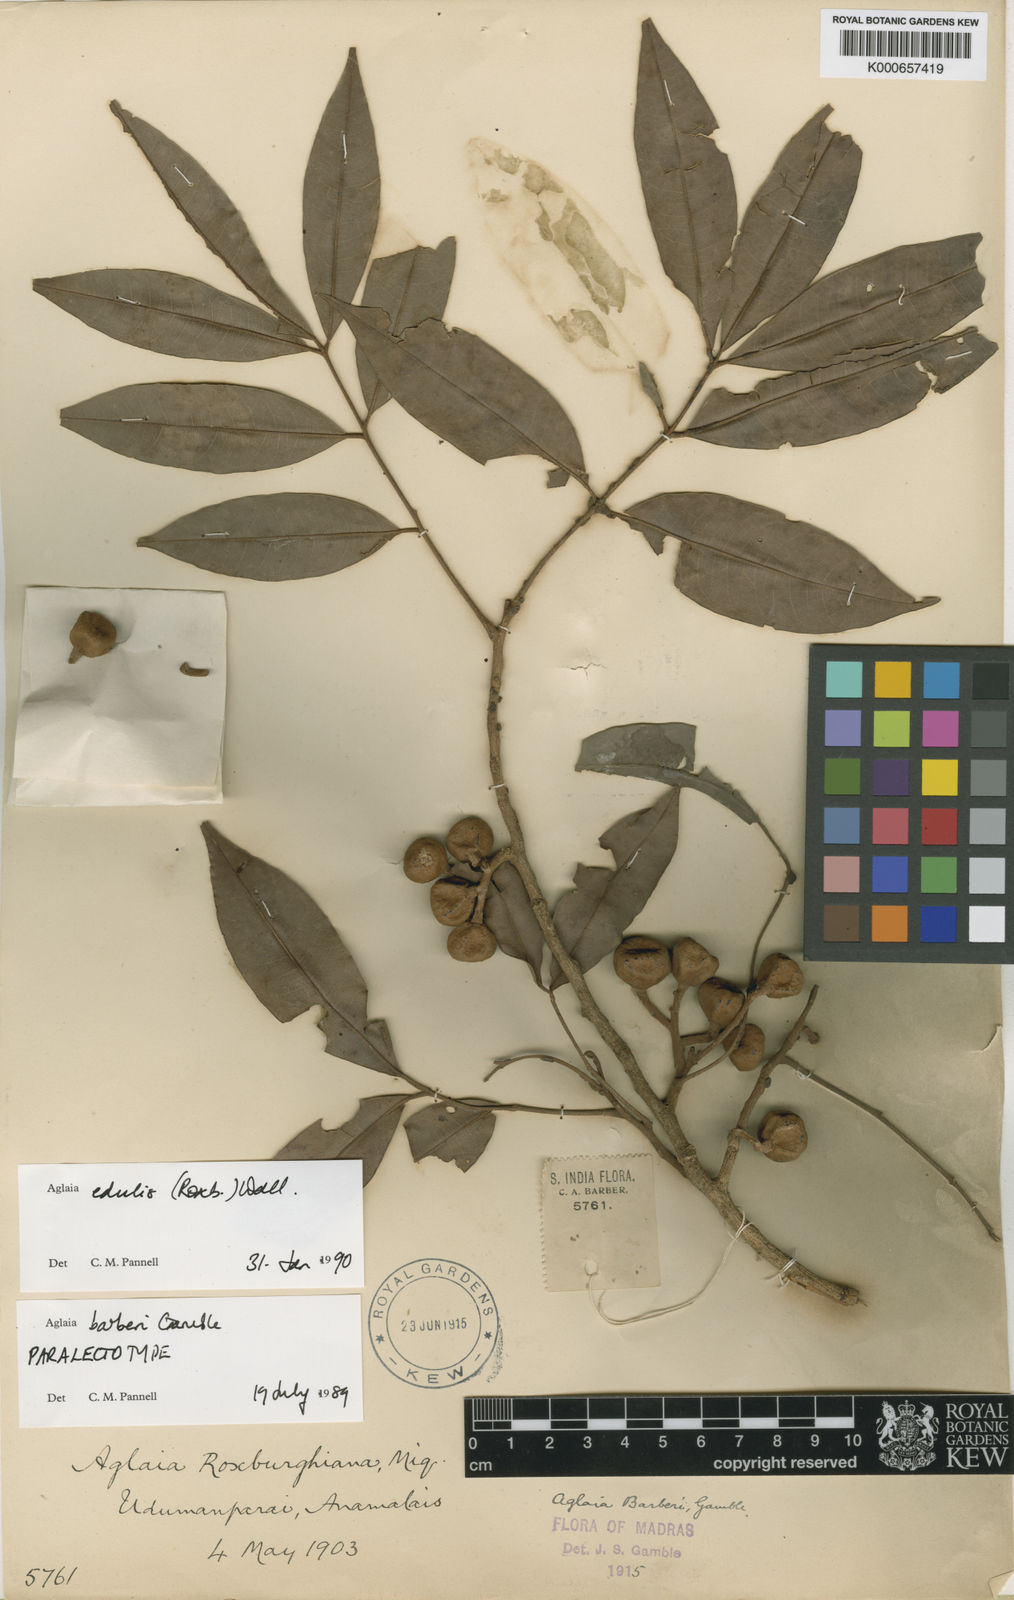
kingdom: Plantae
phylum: Tracheophyta
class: Magnoliopsida
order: Sapindales
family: Meliaceae
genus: Aglaia
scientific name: Aglaia edulis
